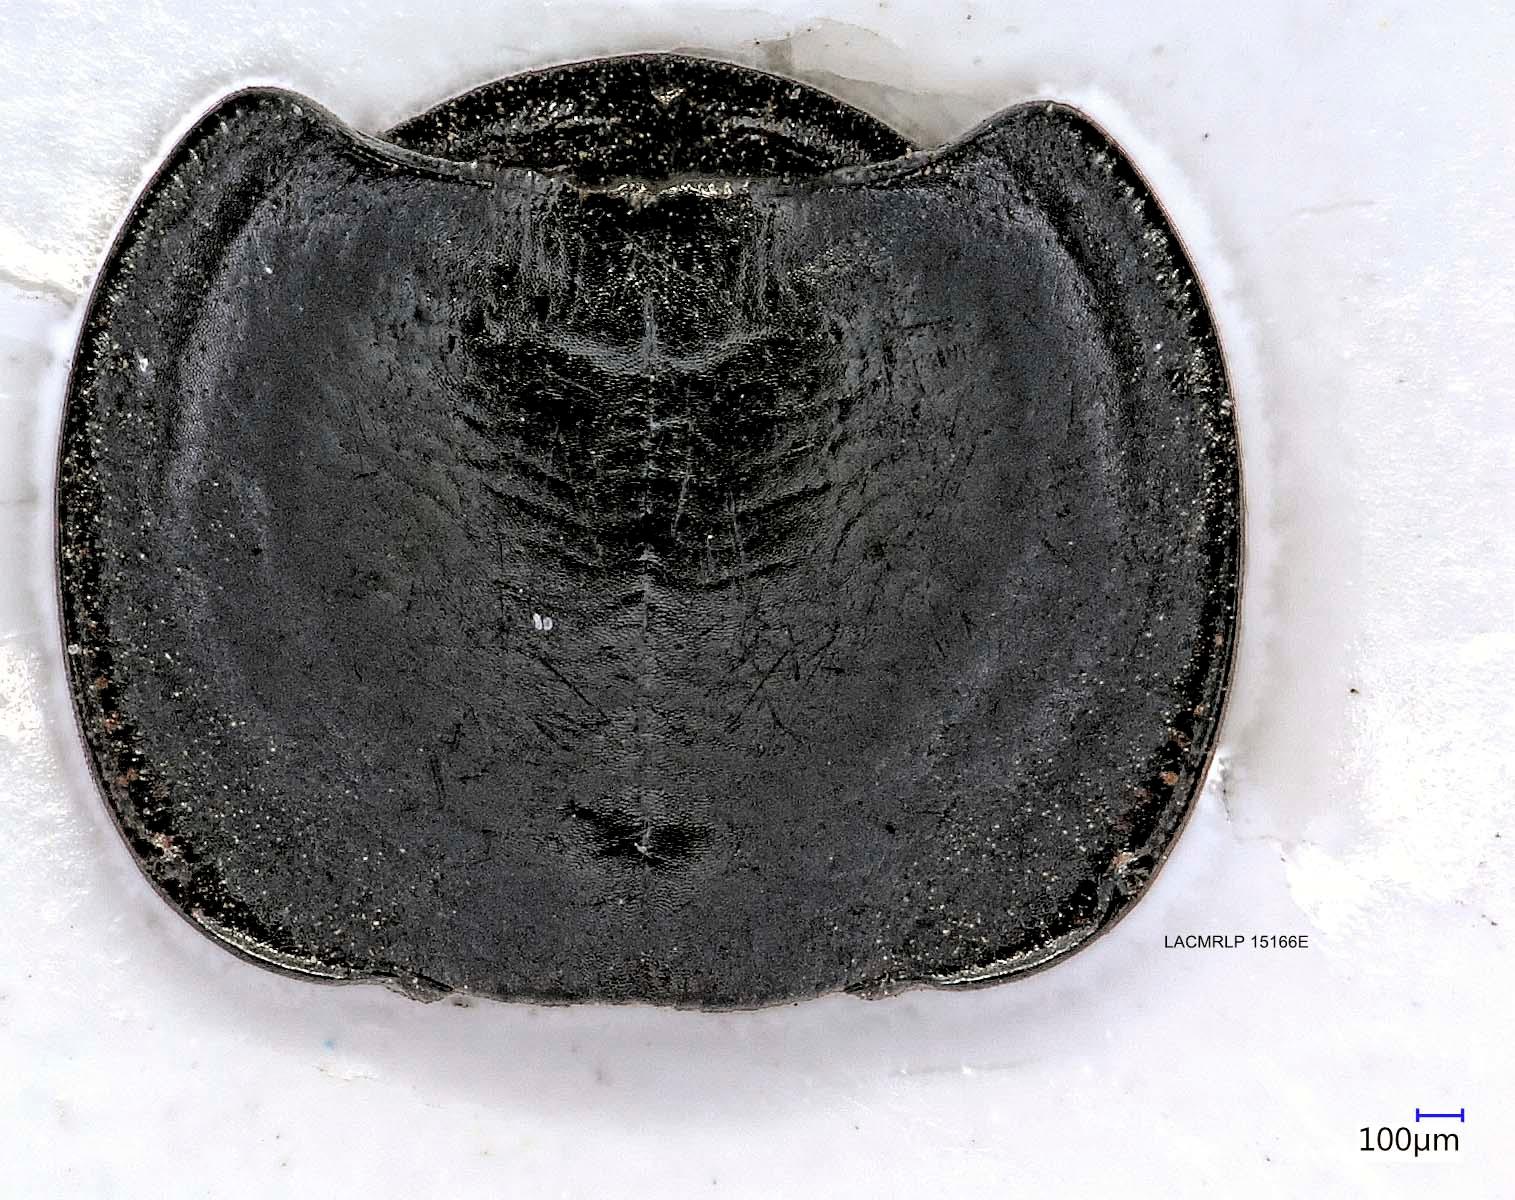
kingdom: Animalia
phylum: Arthropoda
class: Insecta
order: Coleoptera
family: Carabidae
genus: Tanystoma
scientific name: Tanystoma maculicolle
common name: Tule beetle
